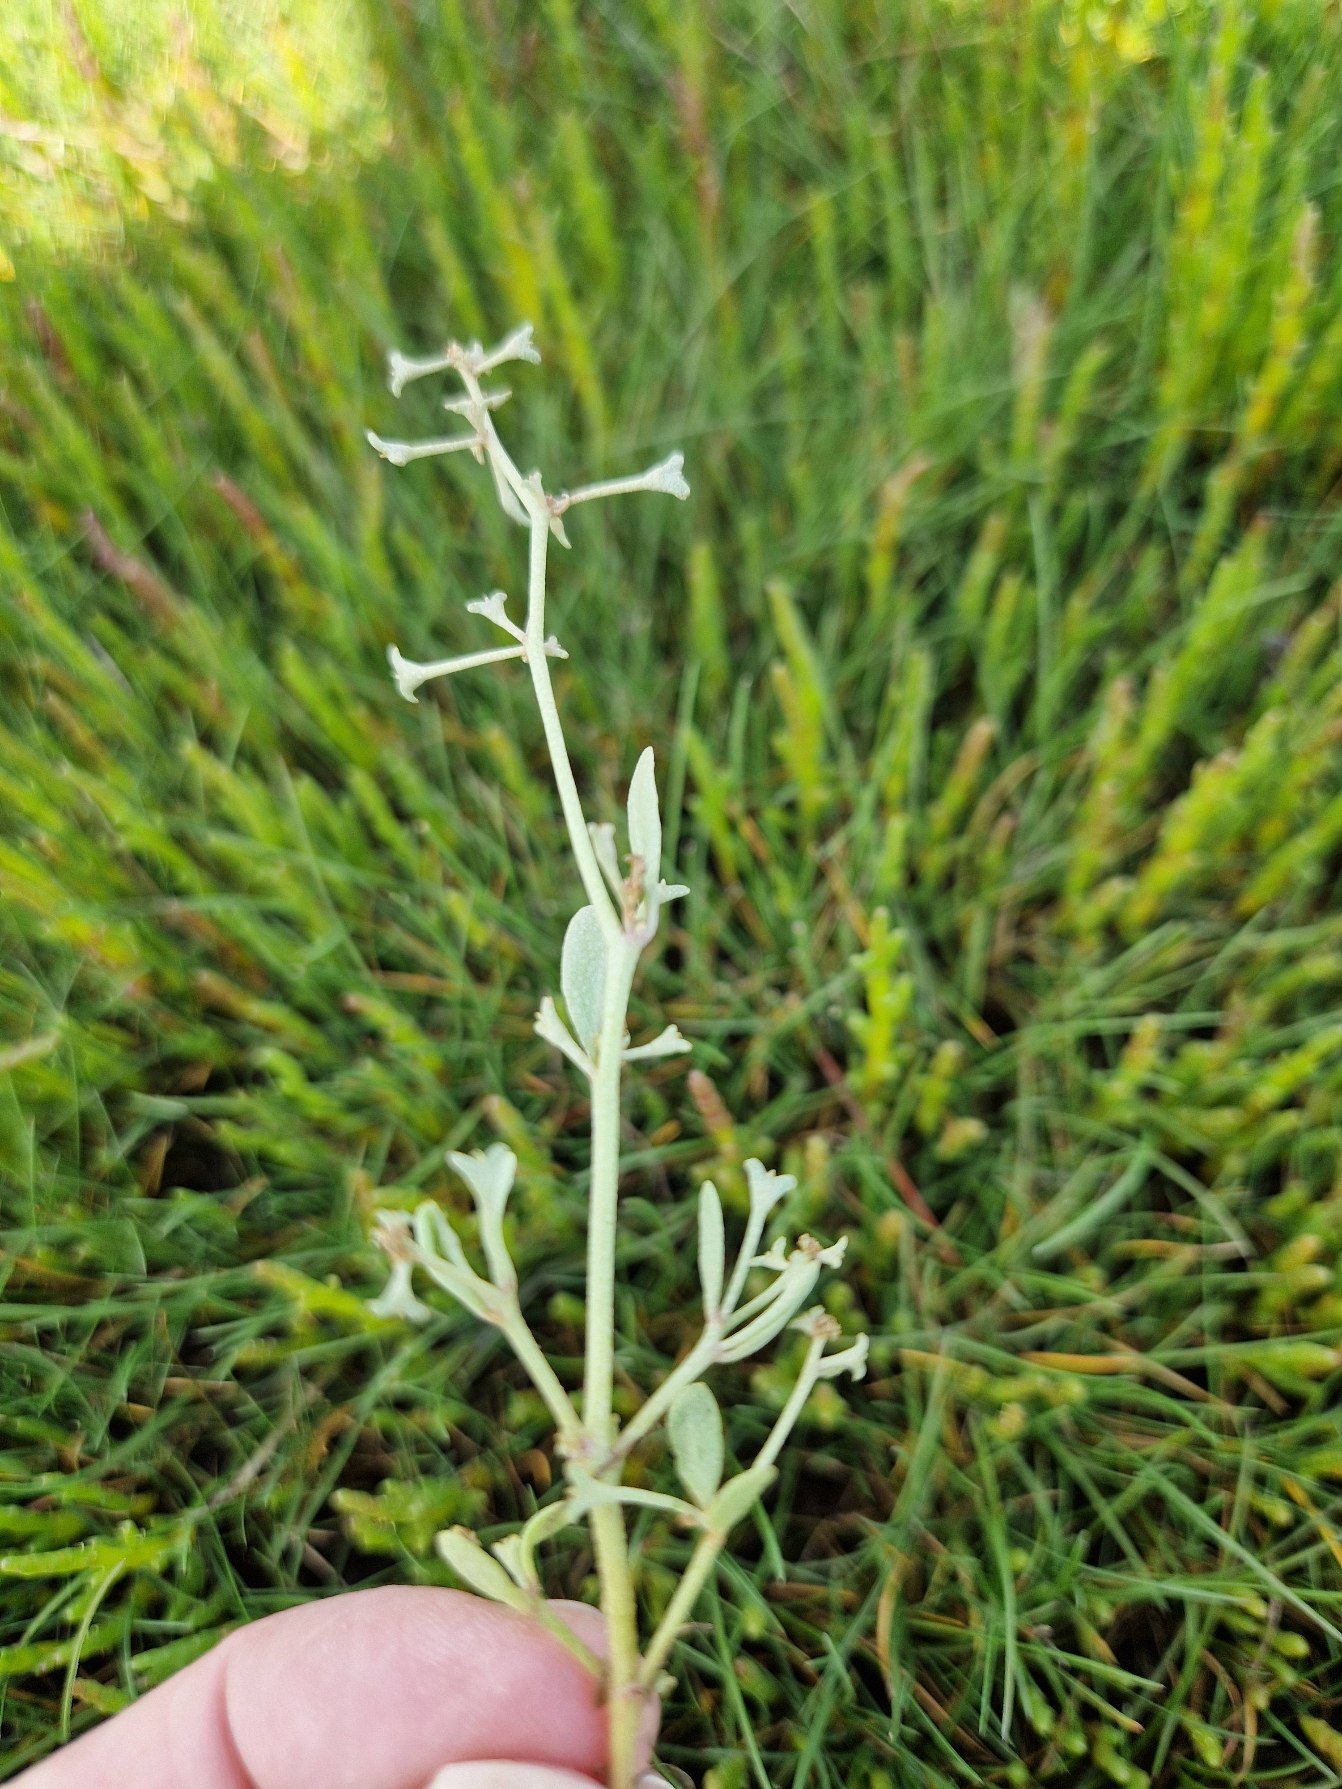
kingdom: Plantae
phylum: Tracheophyta
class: Magnoliopsida
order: Caryophyllales
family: Amaranthaceae
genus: Halimione
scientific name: Halimione pedunculata
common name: Stilket kilebæger
